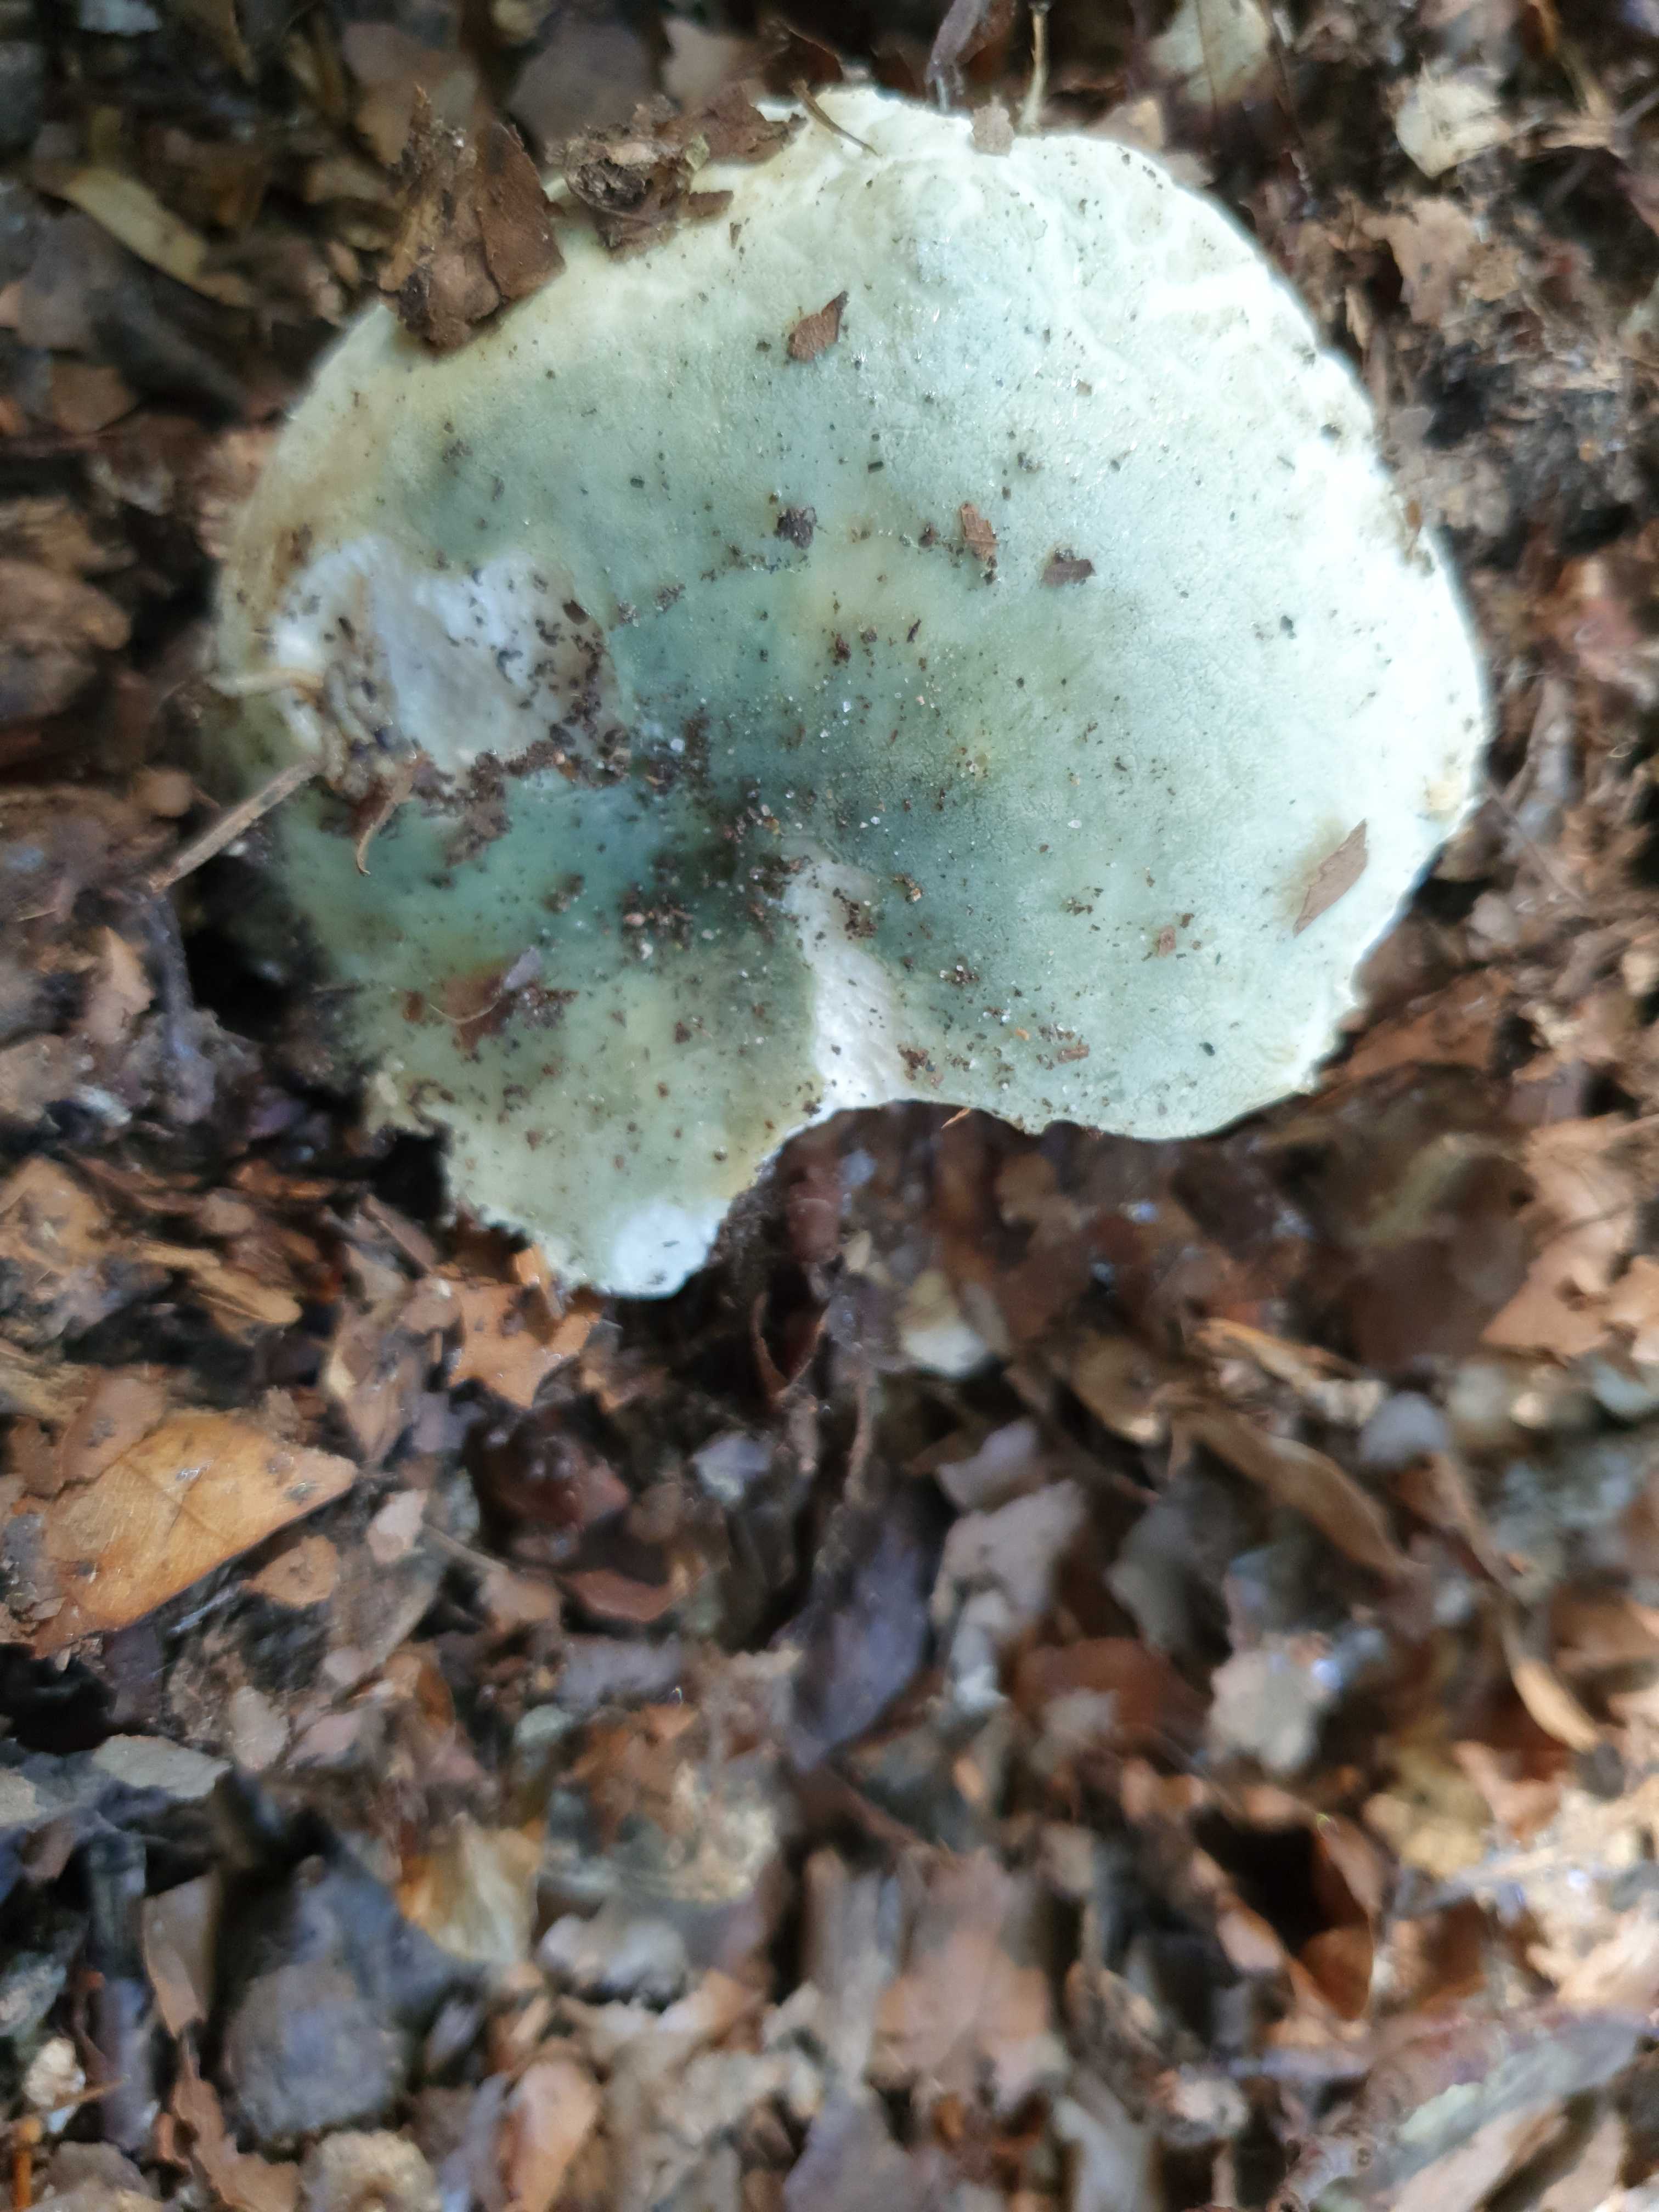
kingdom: Fungi
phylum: Basidiomycota
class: Agaricomycetes
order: Russulales
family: Russulaceae
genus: Russula
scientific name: Russula virescens
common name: spanskgrøn skørhat
